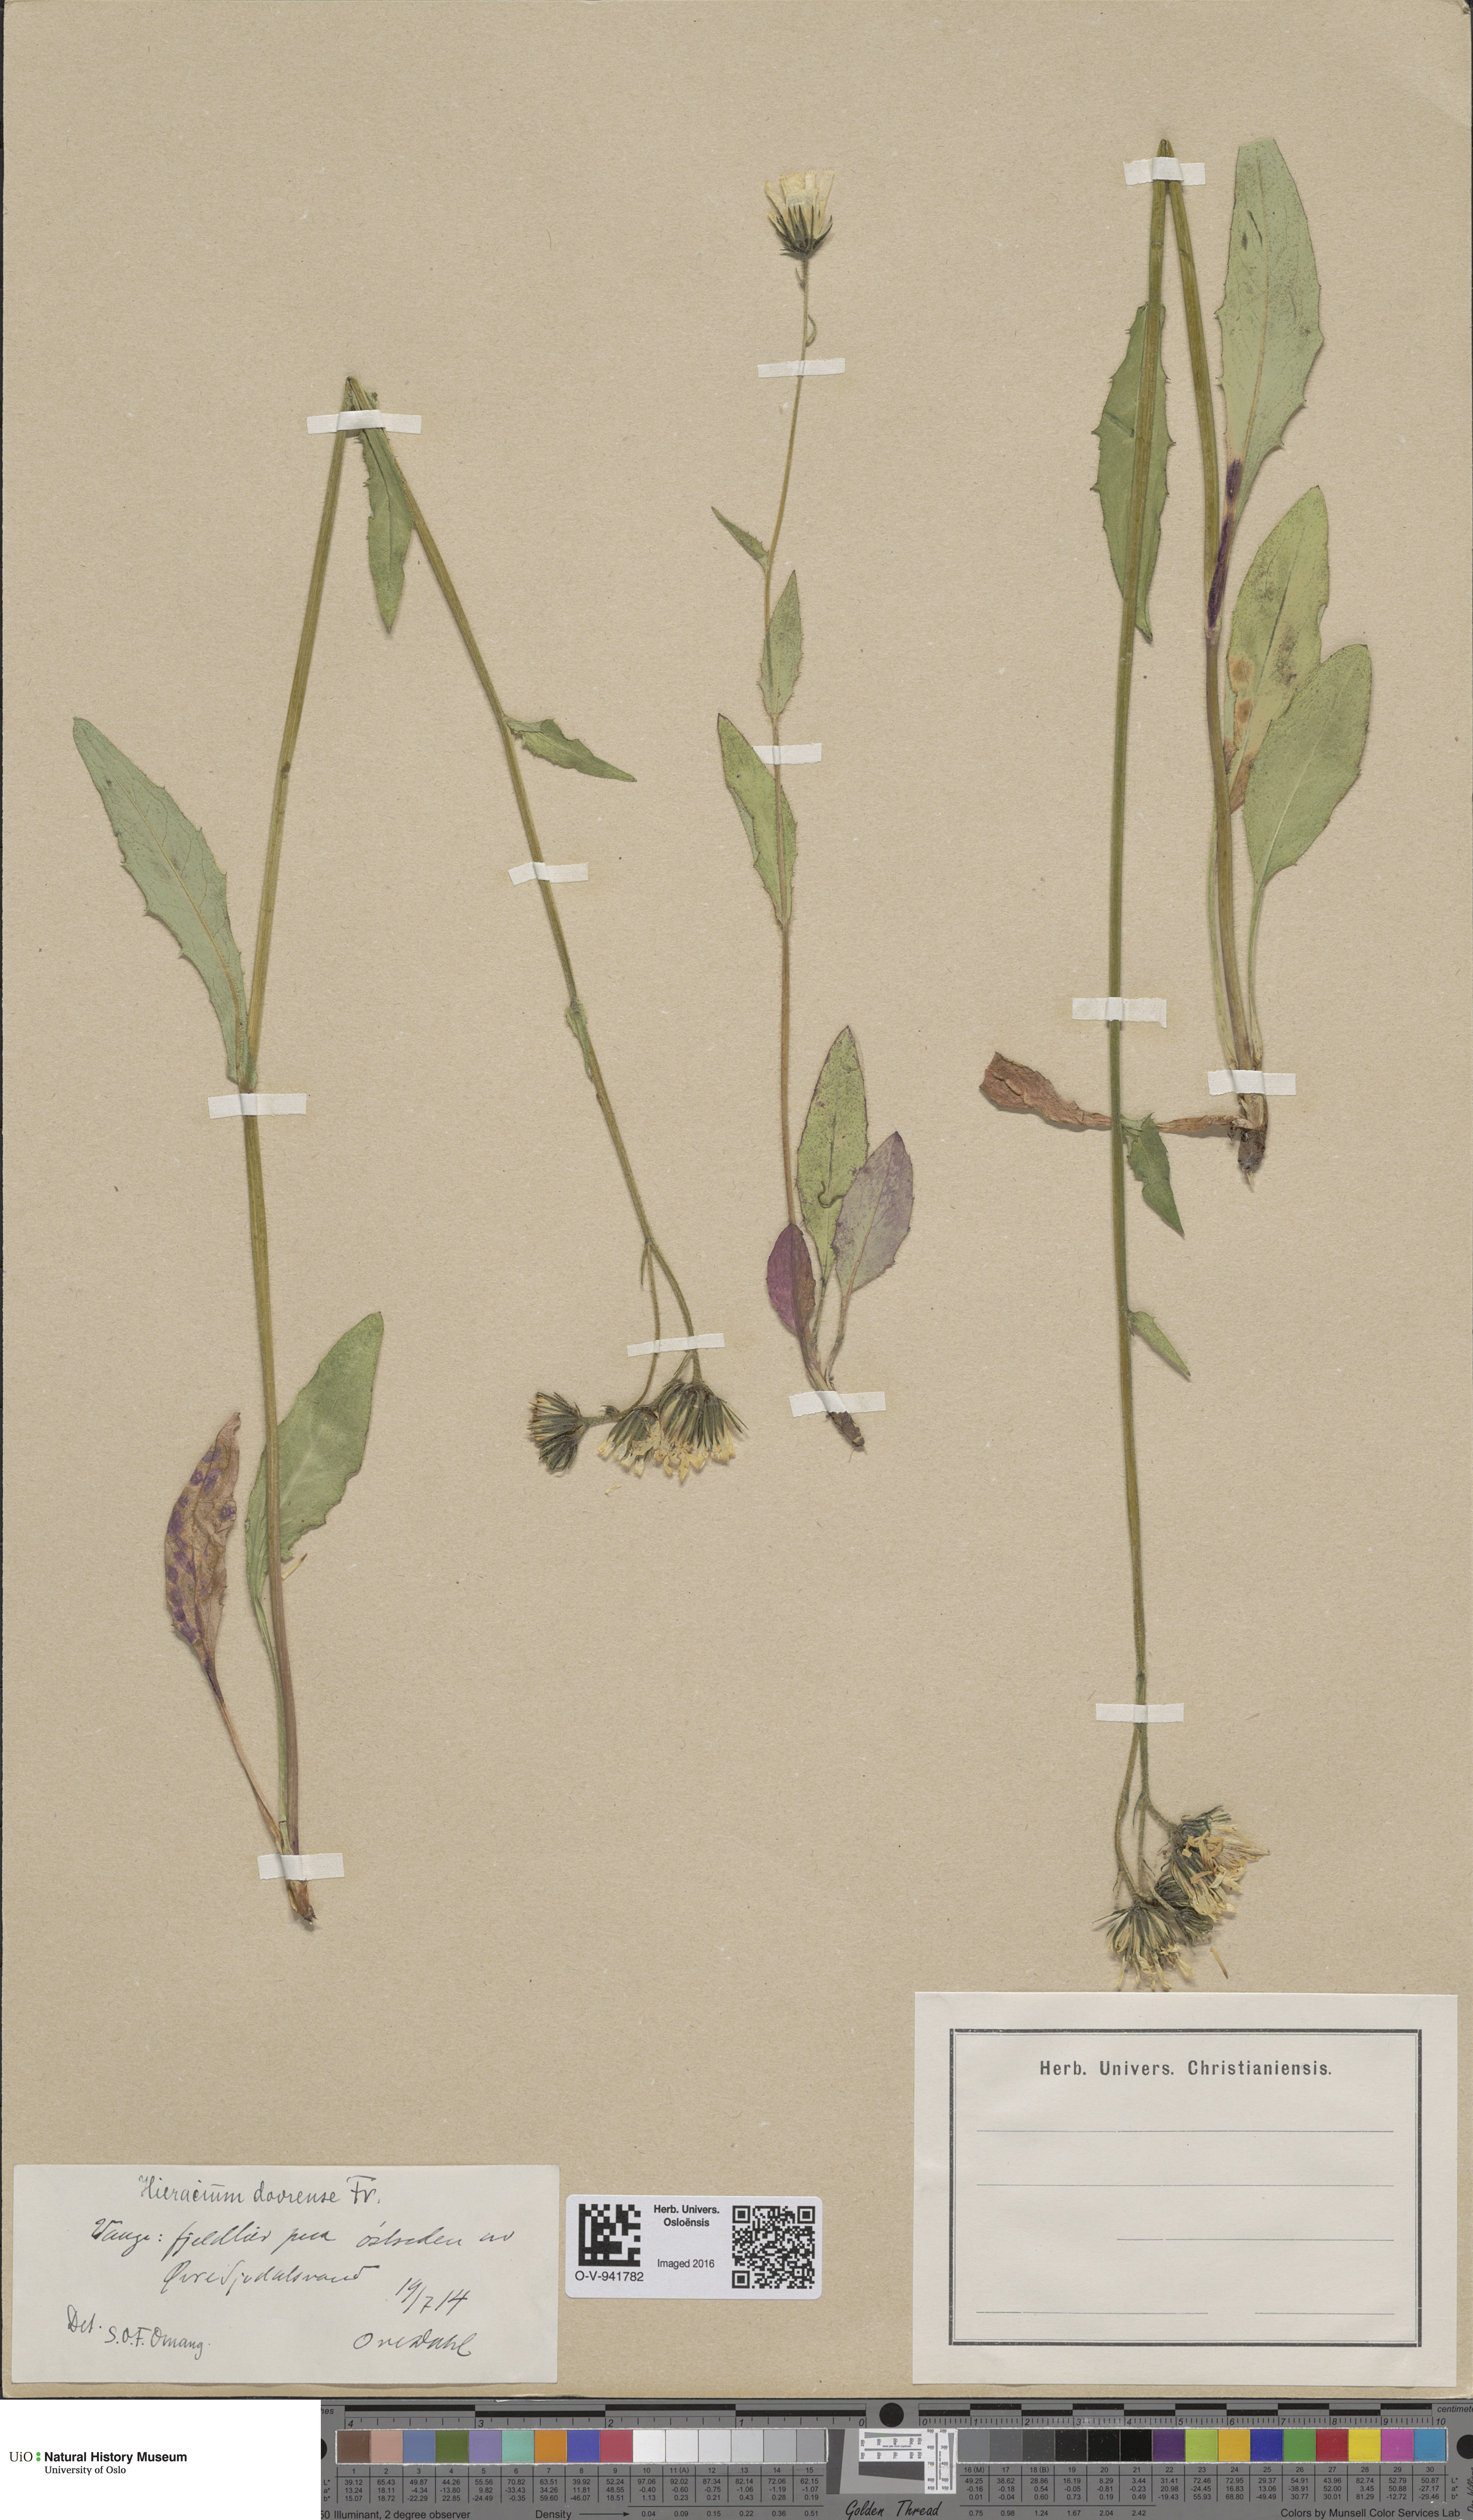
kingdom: Plantae
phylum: Tracheophyta
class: Magnoliopsida
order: Asterales
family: Asteraceae
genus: Hieracium
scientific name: Hieracium dovrense
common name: Dovre hawkweed
